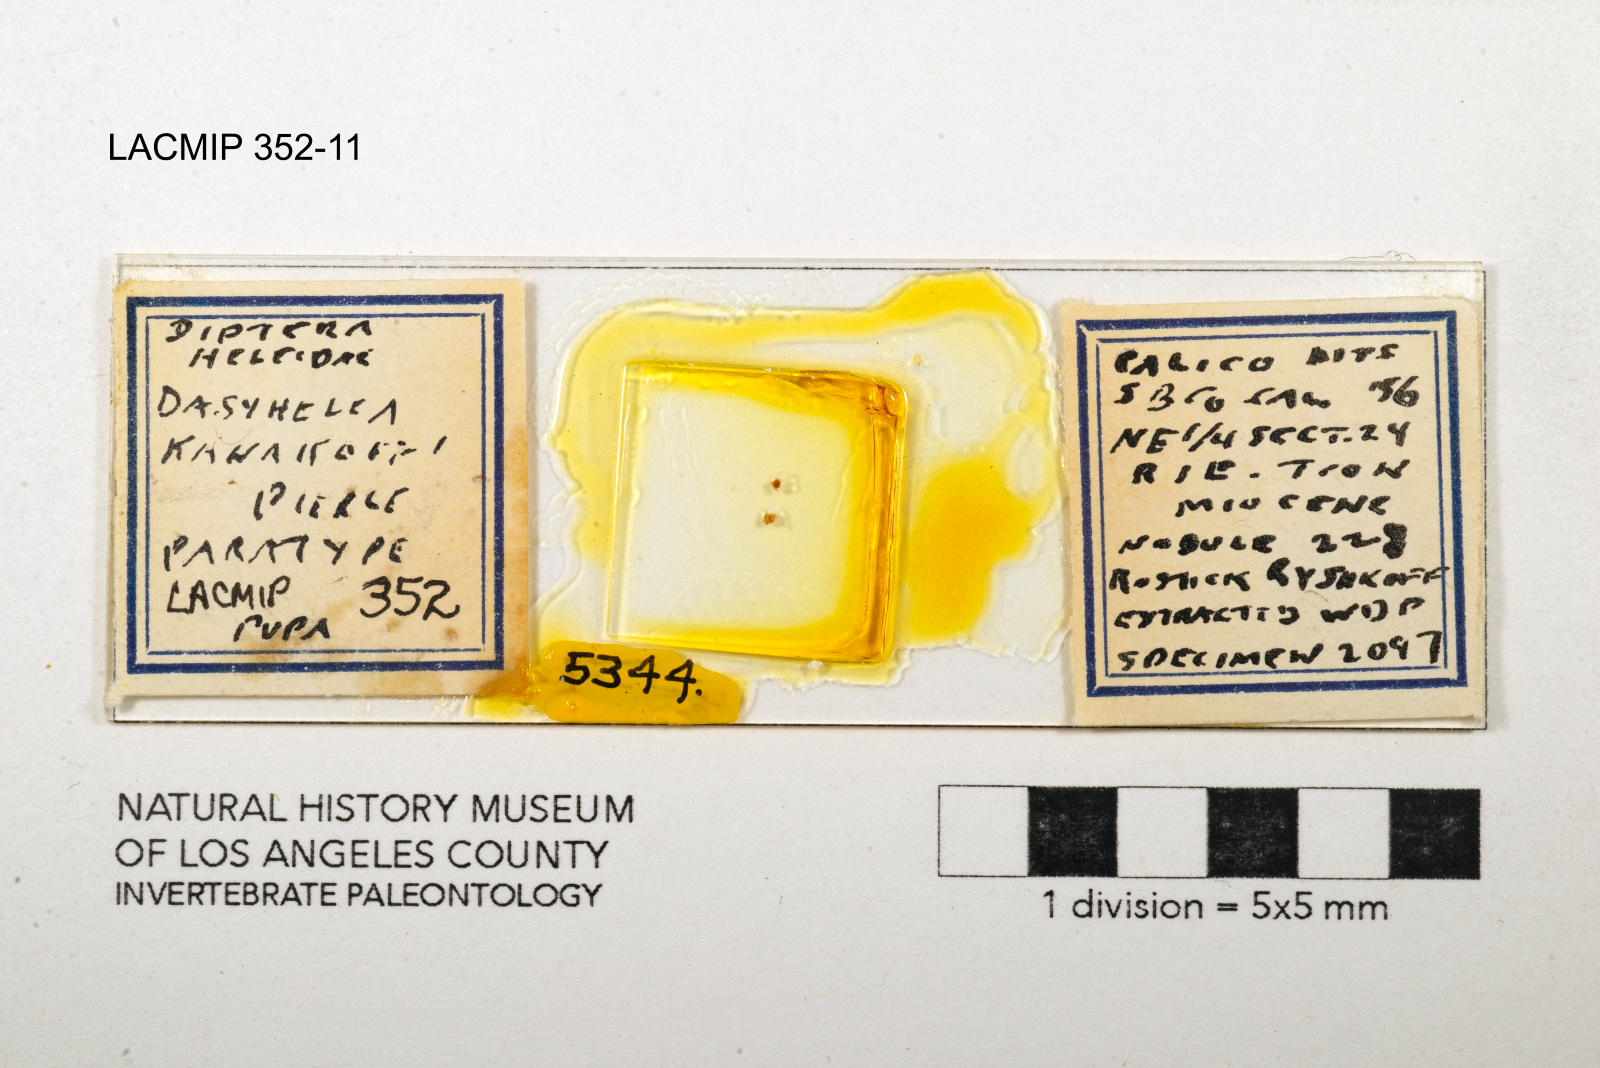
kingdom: Animalia
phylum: Arthropoda
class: Insecta
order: Diptera
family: Ceratopogonidae
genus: Dasyhelea
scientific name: Dasyhelea kanakoffi
